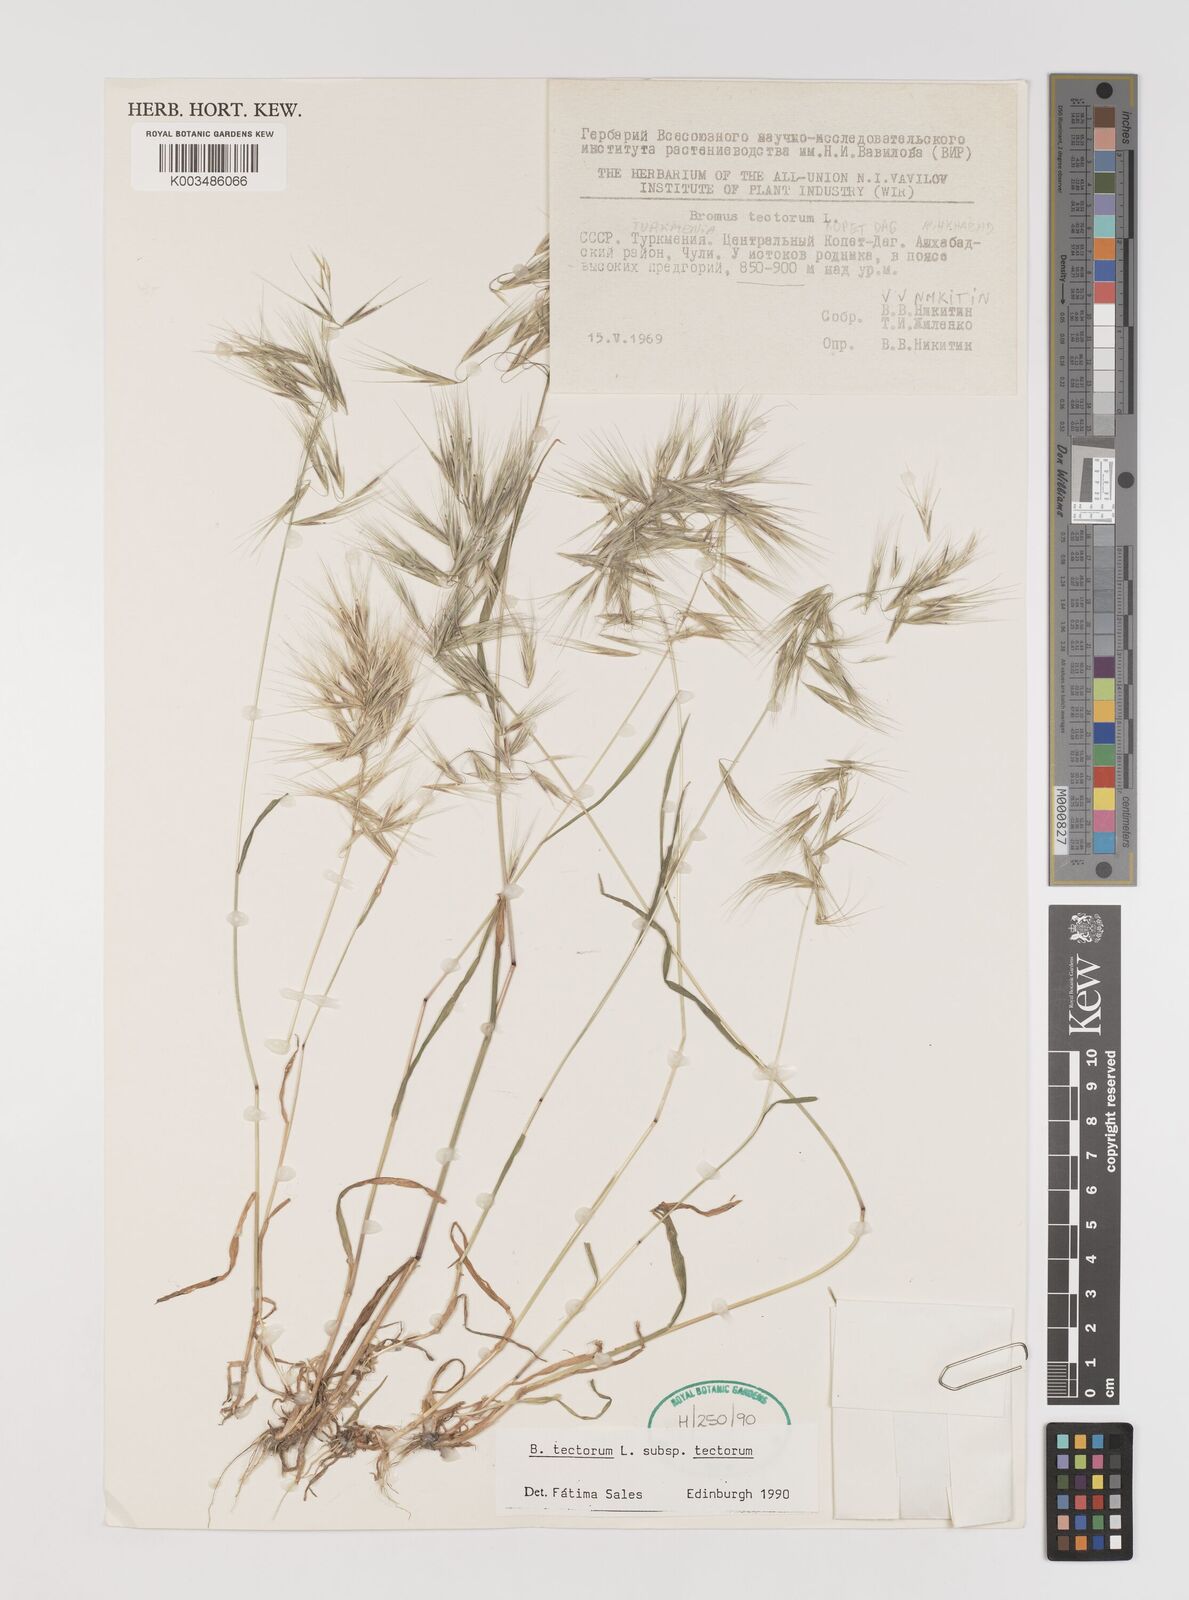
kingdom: Plantae
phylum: Tracheophyta
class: Liliopsida
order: Poales
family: Poaceae
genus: Bromus
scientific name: Bromus tectorum
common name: Cheatgrass
